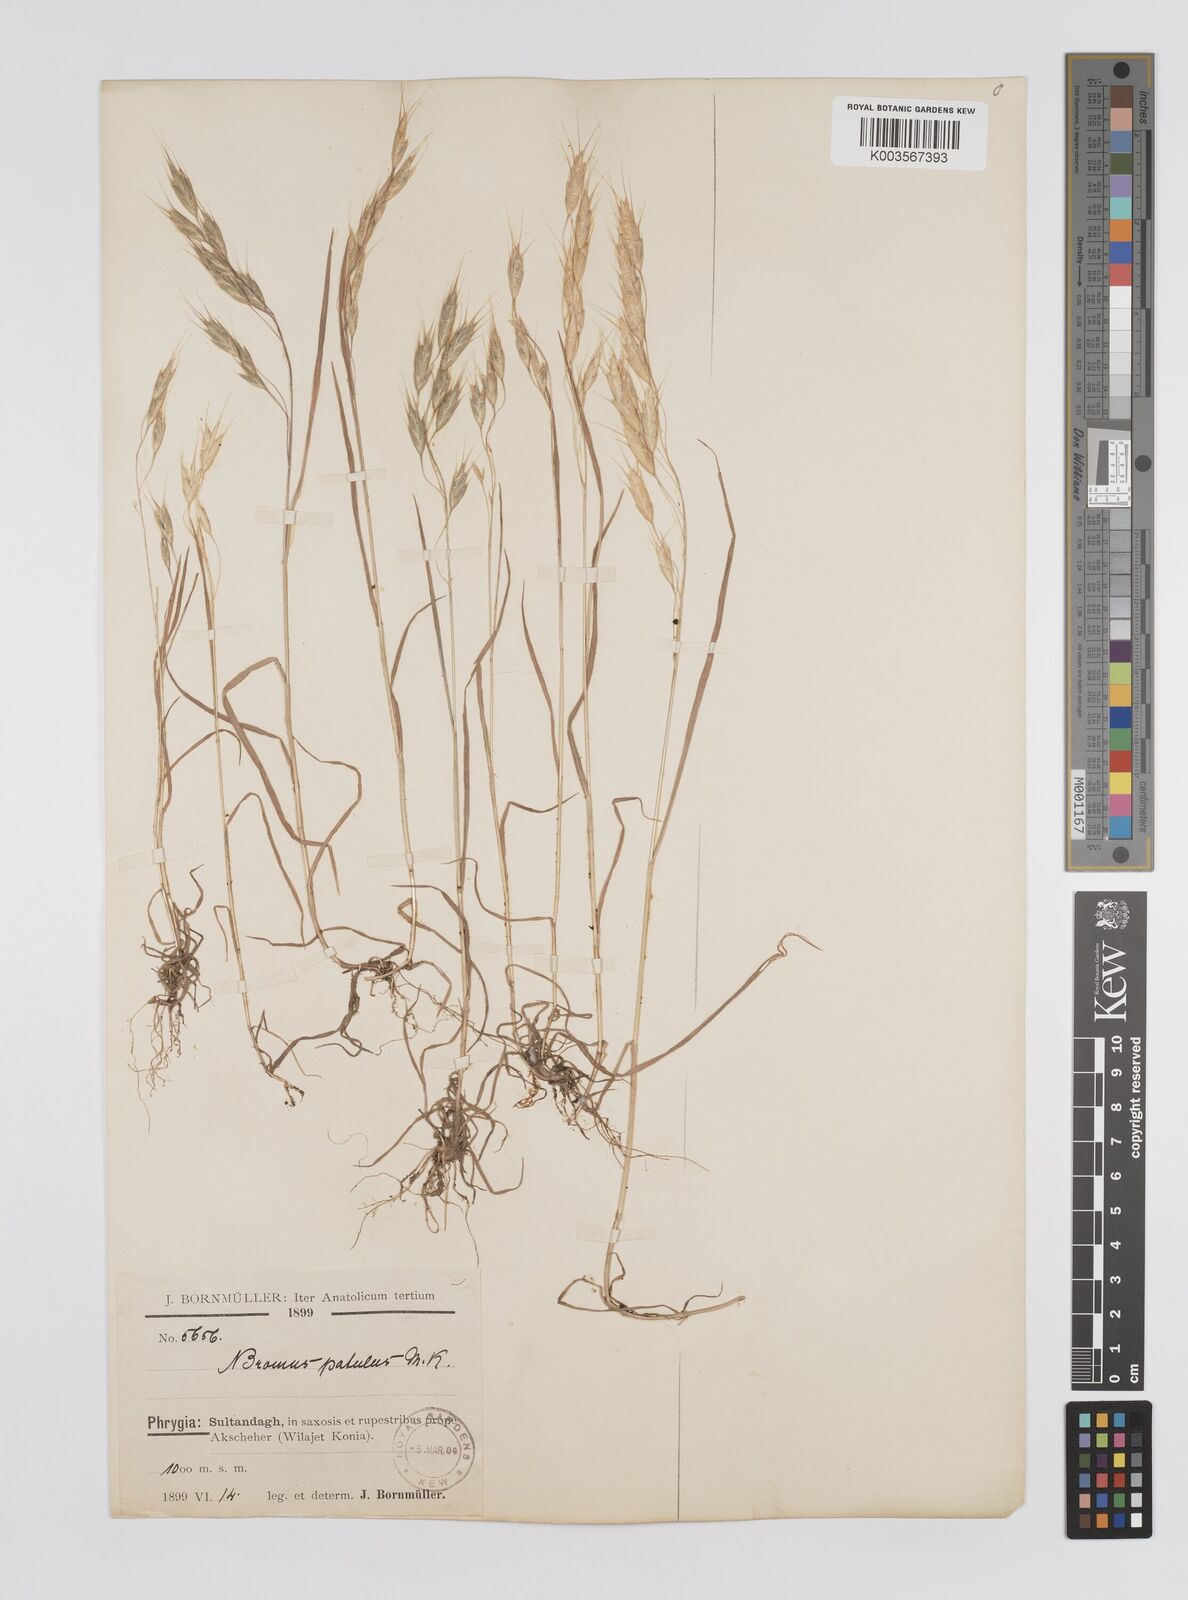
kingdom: Plantae
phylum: Tracheophyta
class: Liliopsida
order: Poales
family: Poaceae
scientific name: Poaceae
